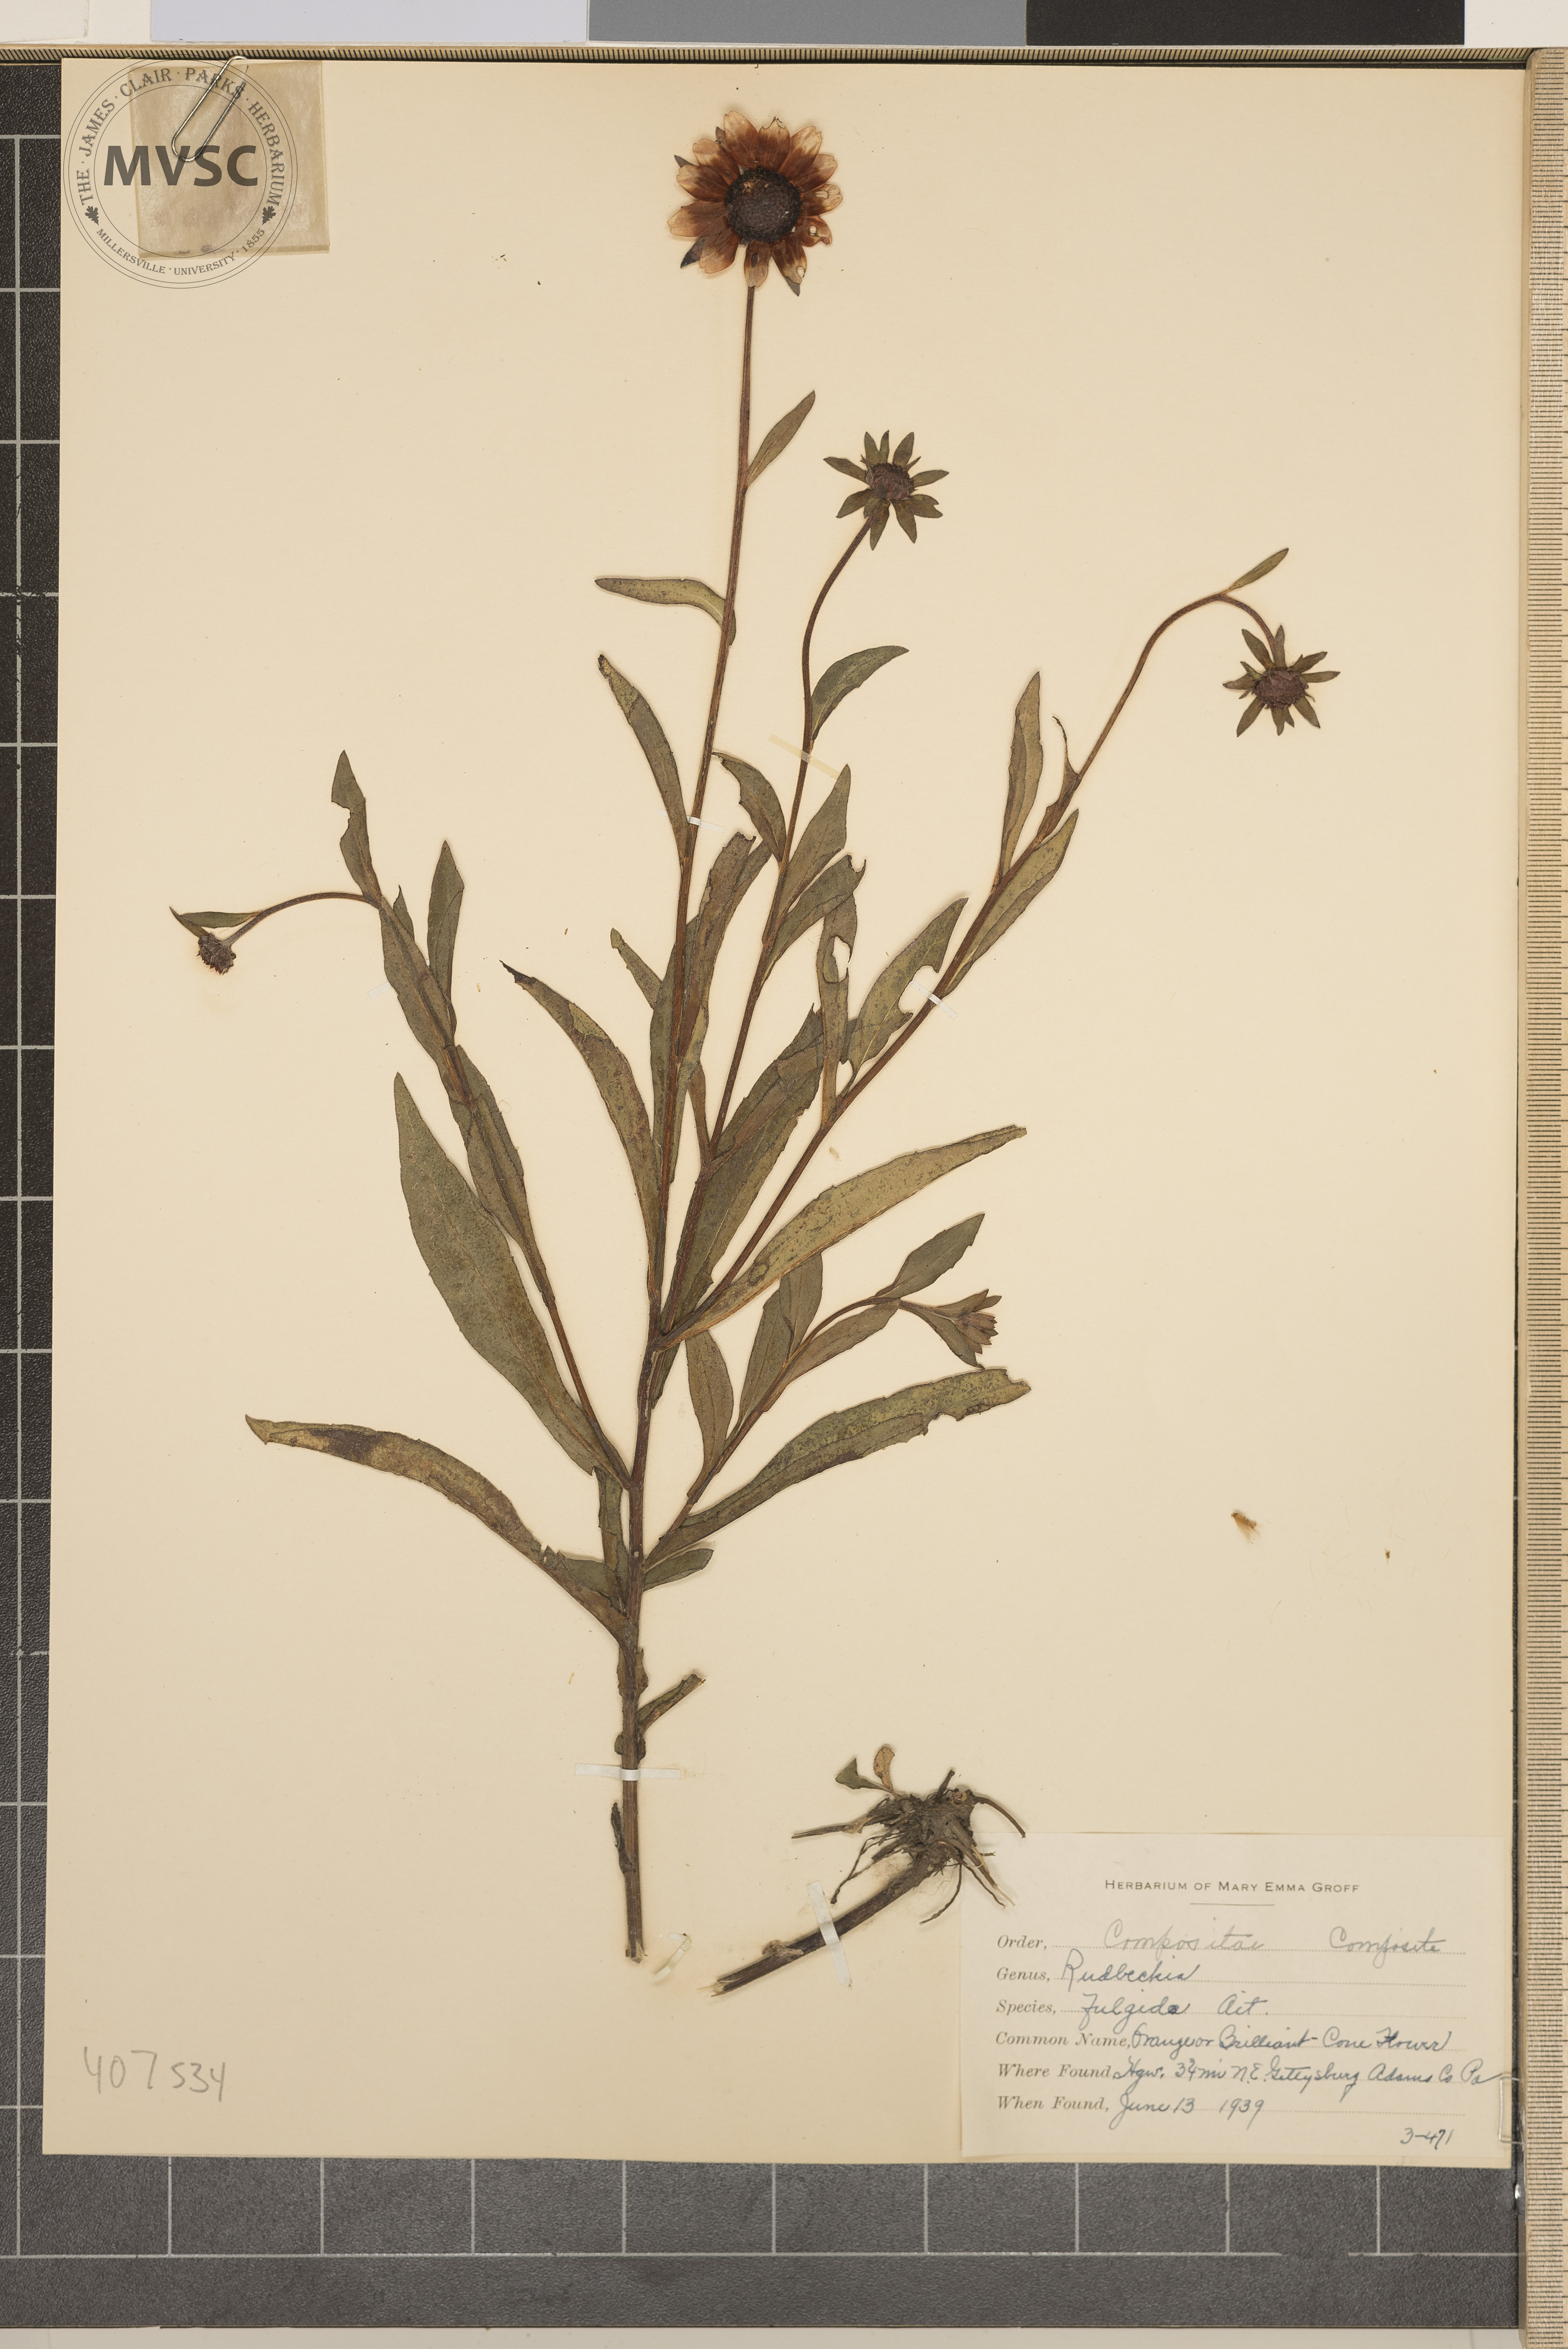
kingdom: Plantae
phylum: Tracheophyta
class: Magnoliopsida
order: Asterales
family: Asteraceae
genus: Rudbeckia
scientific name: Rudbeckia fulgida
